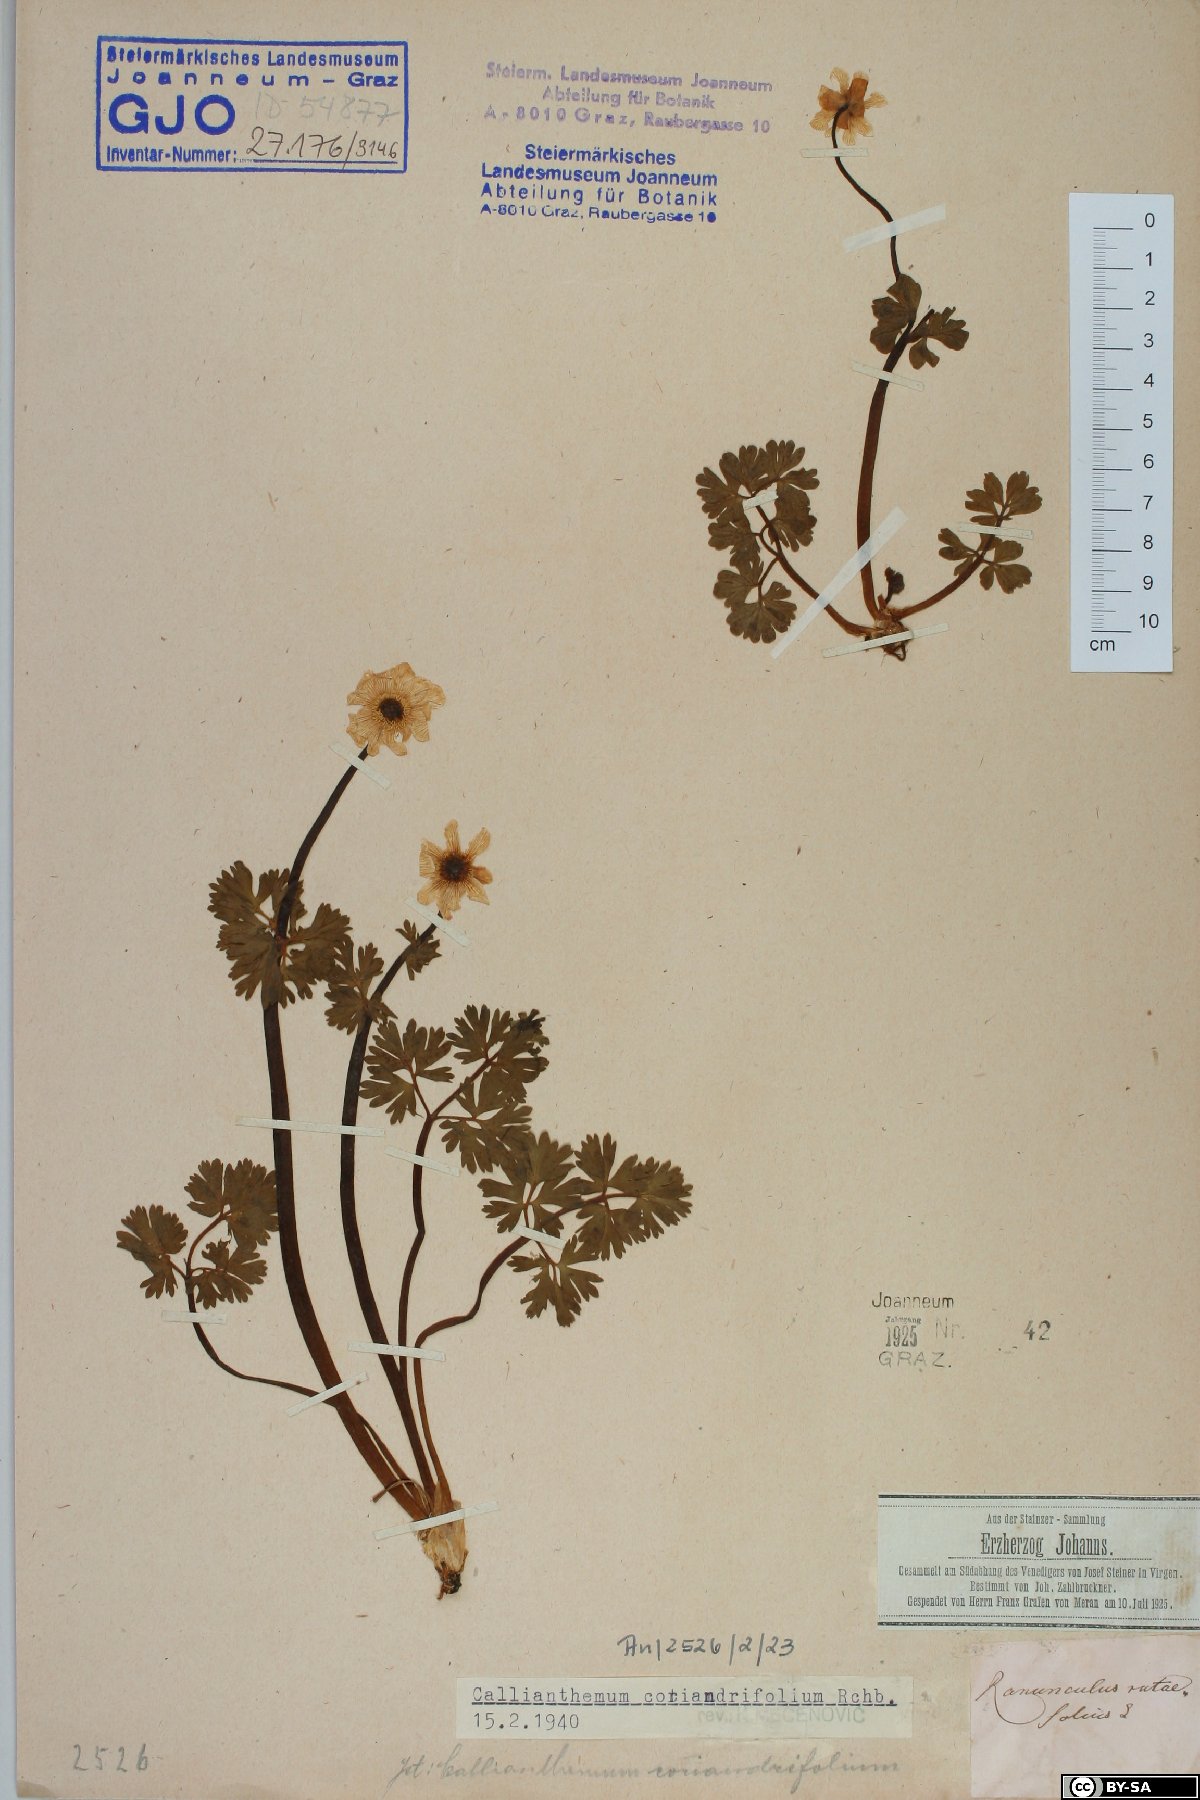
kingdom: Plantae
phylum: Tracheophyta
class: Magnoliopsida
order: Ranunculales
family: Ranunculaceae
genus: Callianthemum
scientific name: Callianthemum coriandrifolium
